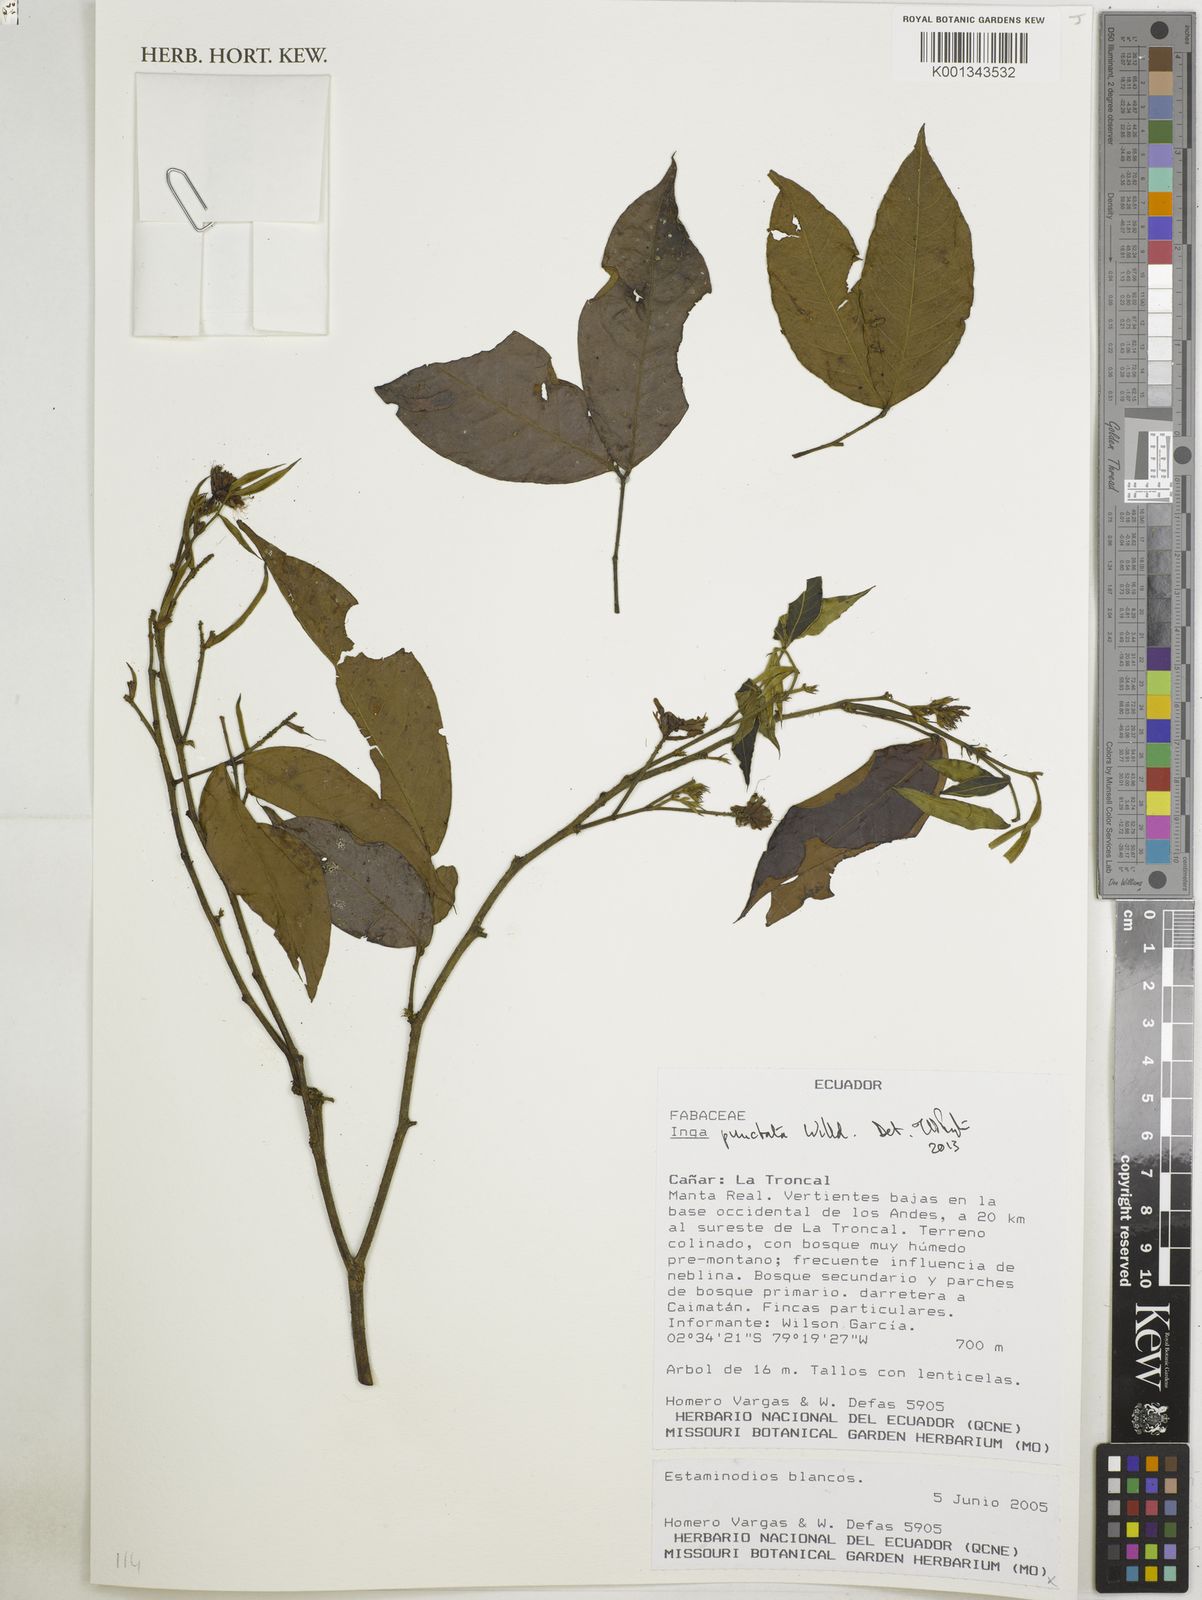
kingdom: Plantae
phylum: Tracheophyta
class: Magnoliopsida
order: Fabales
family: Fabaceae
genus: Inga
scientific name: Inga punctata
